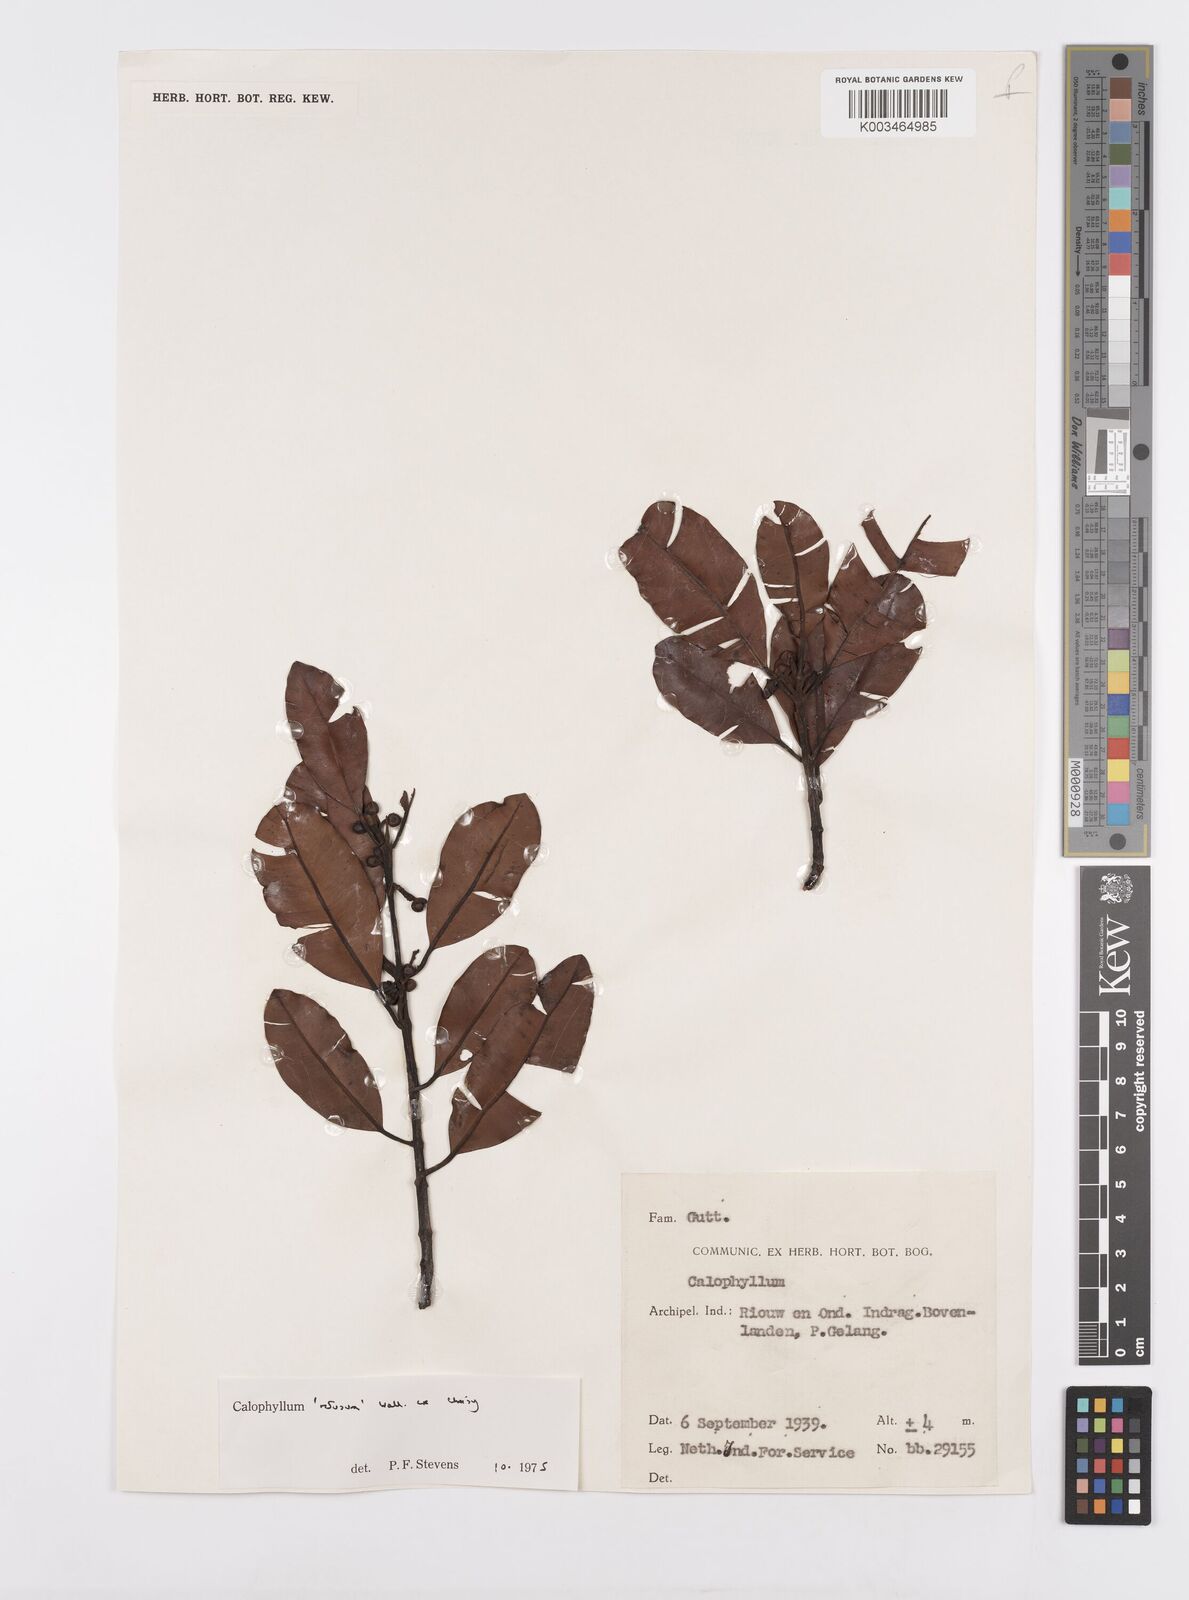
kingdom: Plantae
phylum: Tracheophyta
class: Magnoliopsida
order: Malpighiales
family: Calophyllaceae
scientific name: Calophyllaceae
